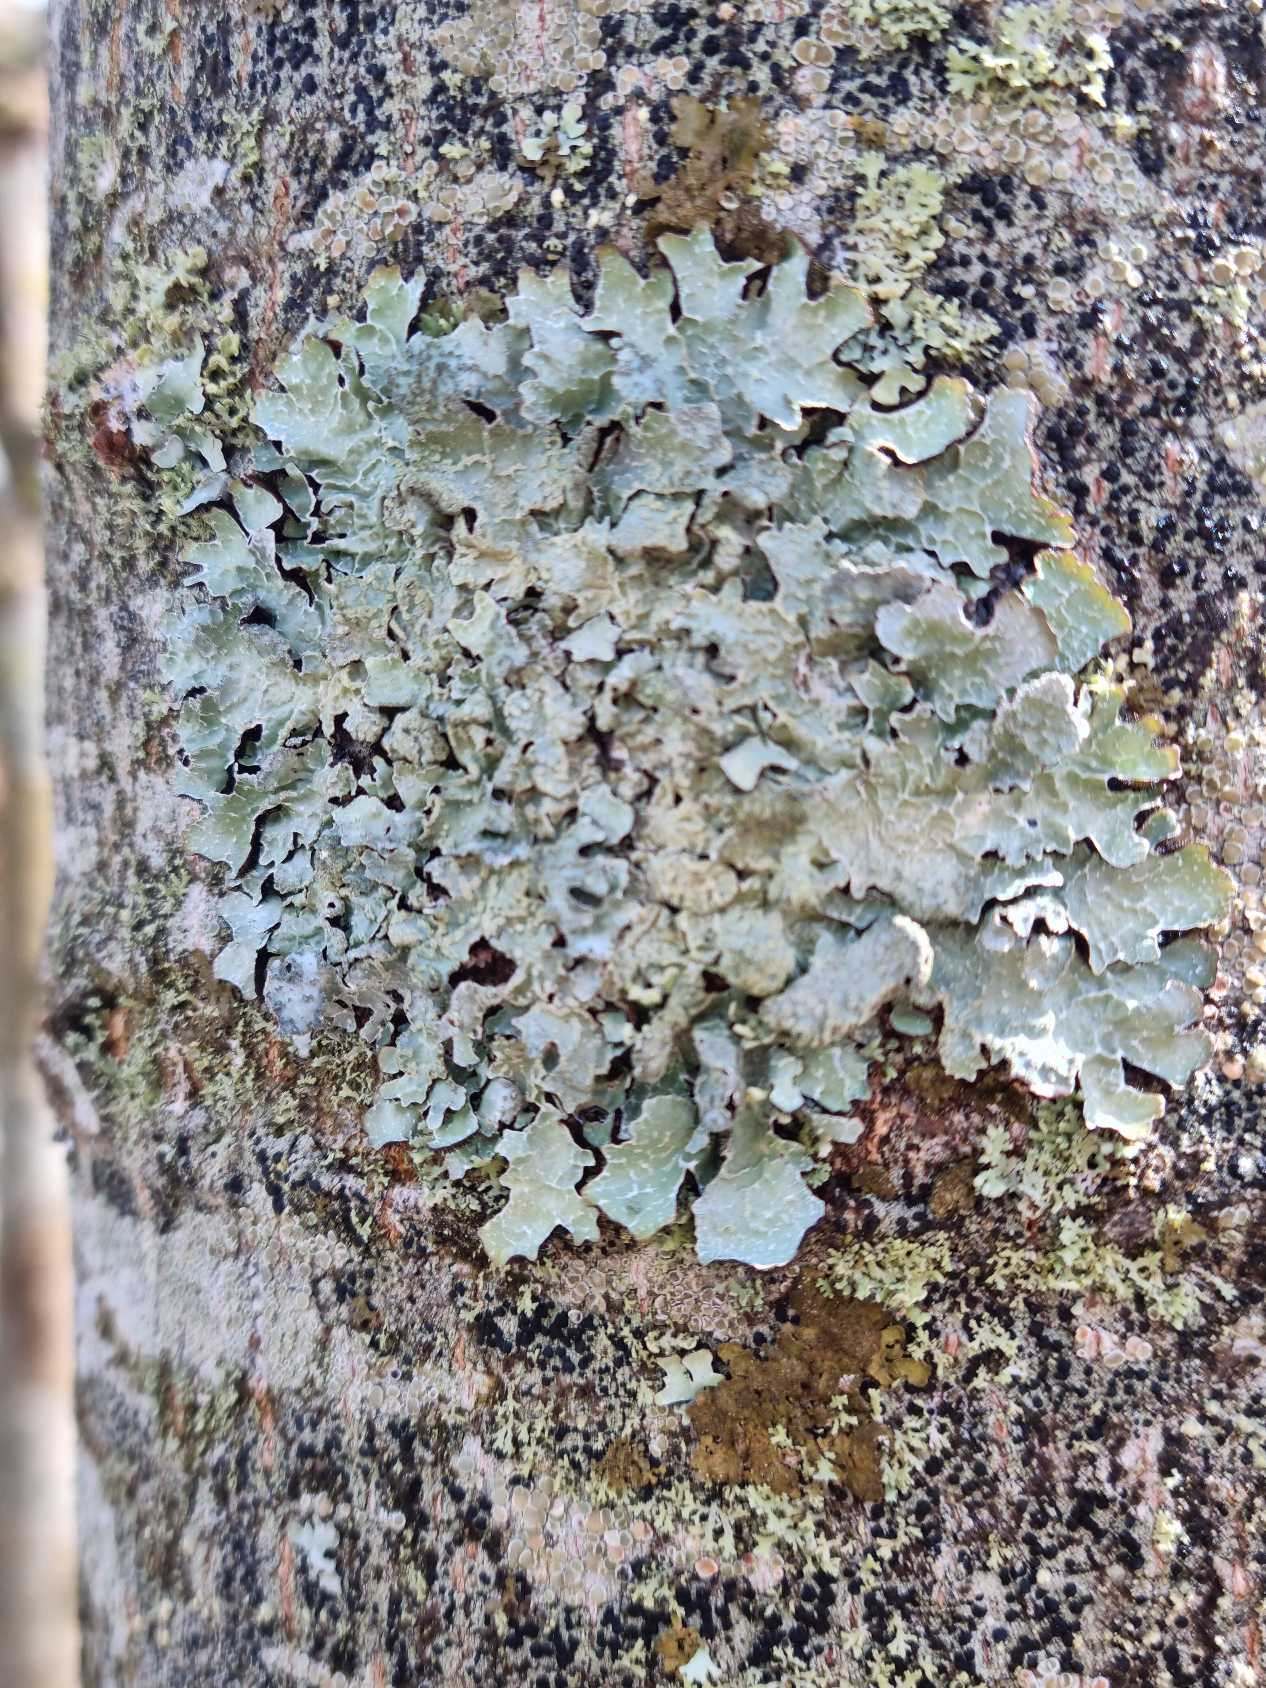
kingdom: Fungi
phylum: Ascomycota
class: Lecanoromycetes
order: Lecanorales
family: Parmeliaceae
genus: Parmelia
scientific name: Parmelia sulcata
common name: Rynket skållav
